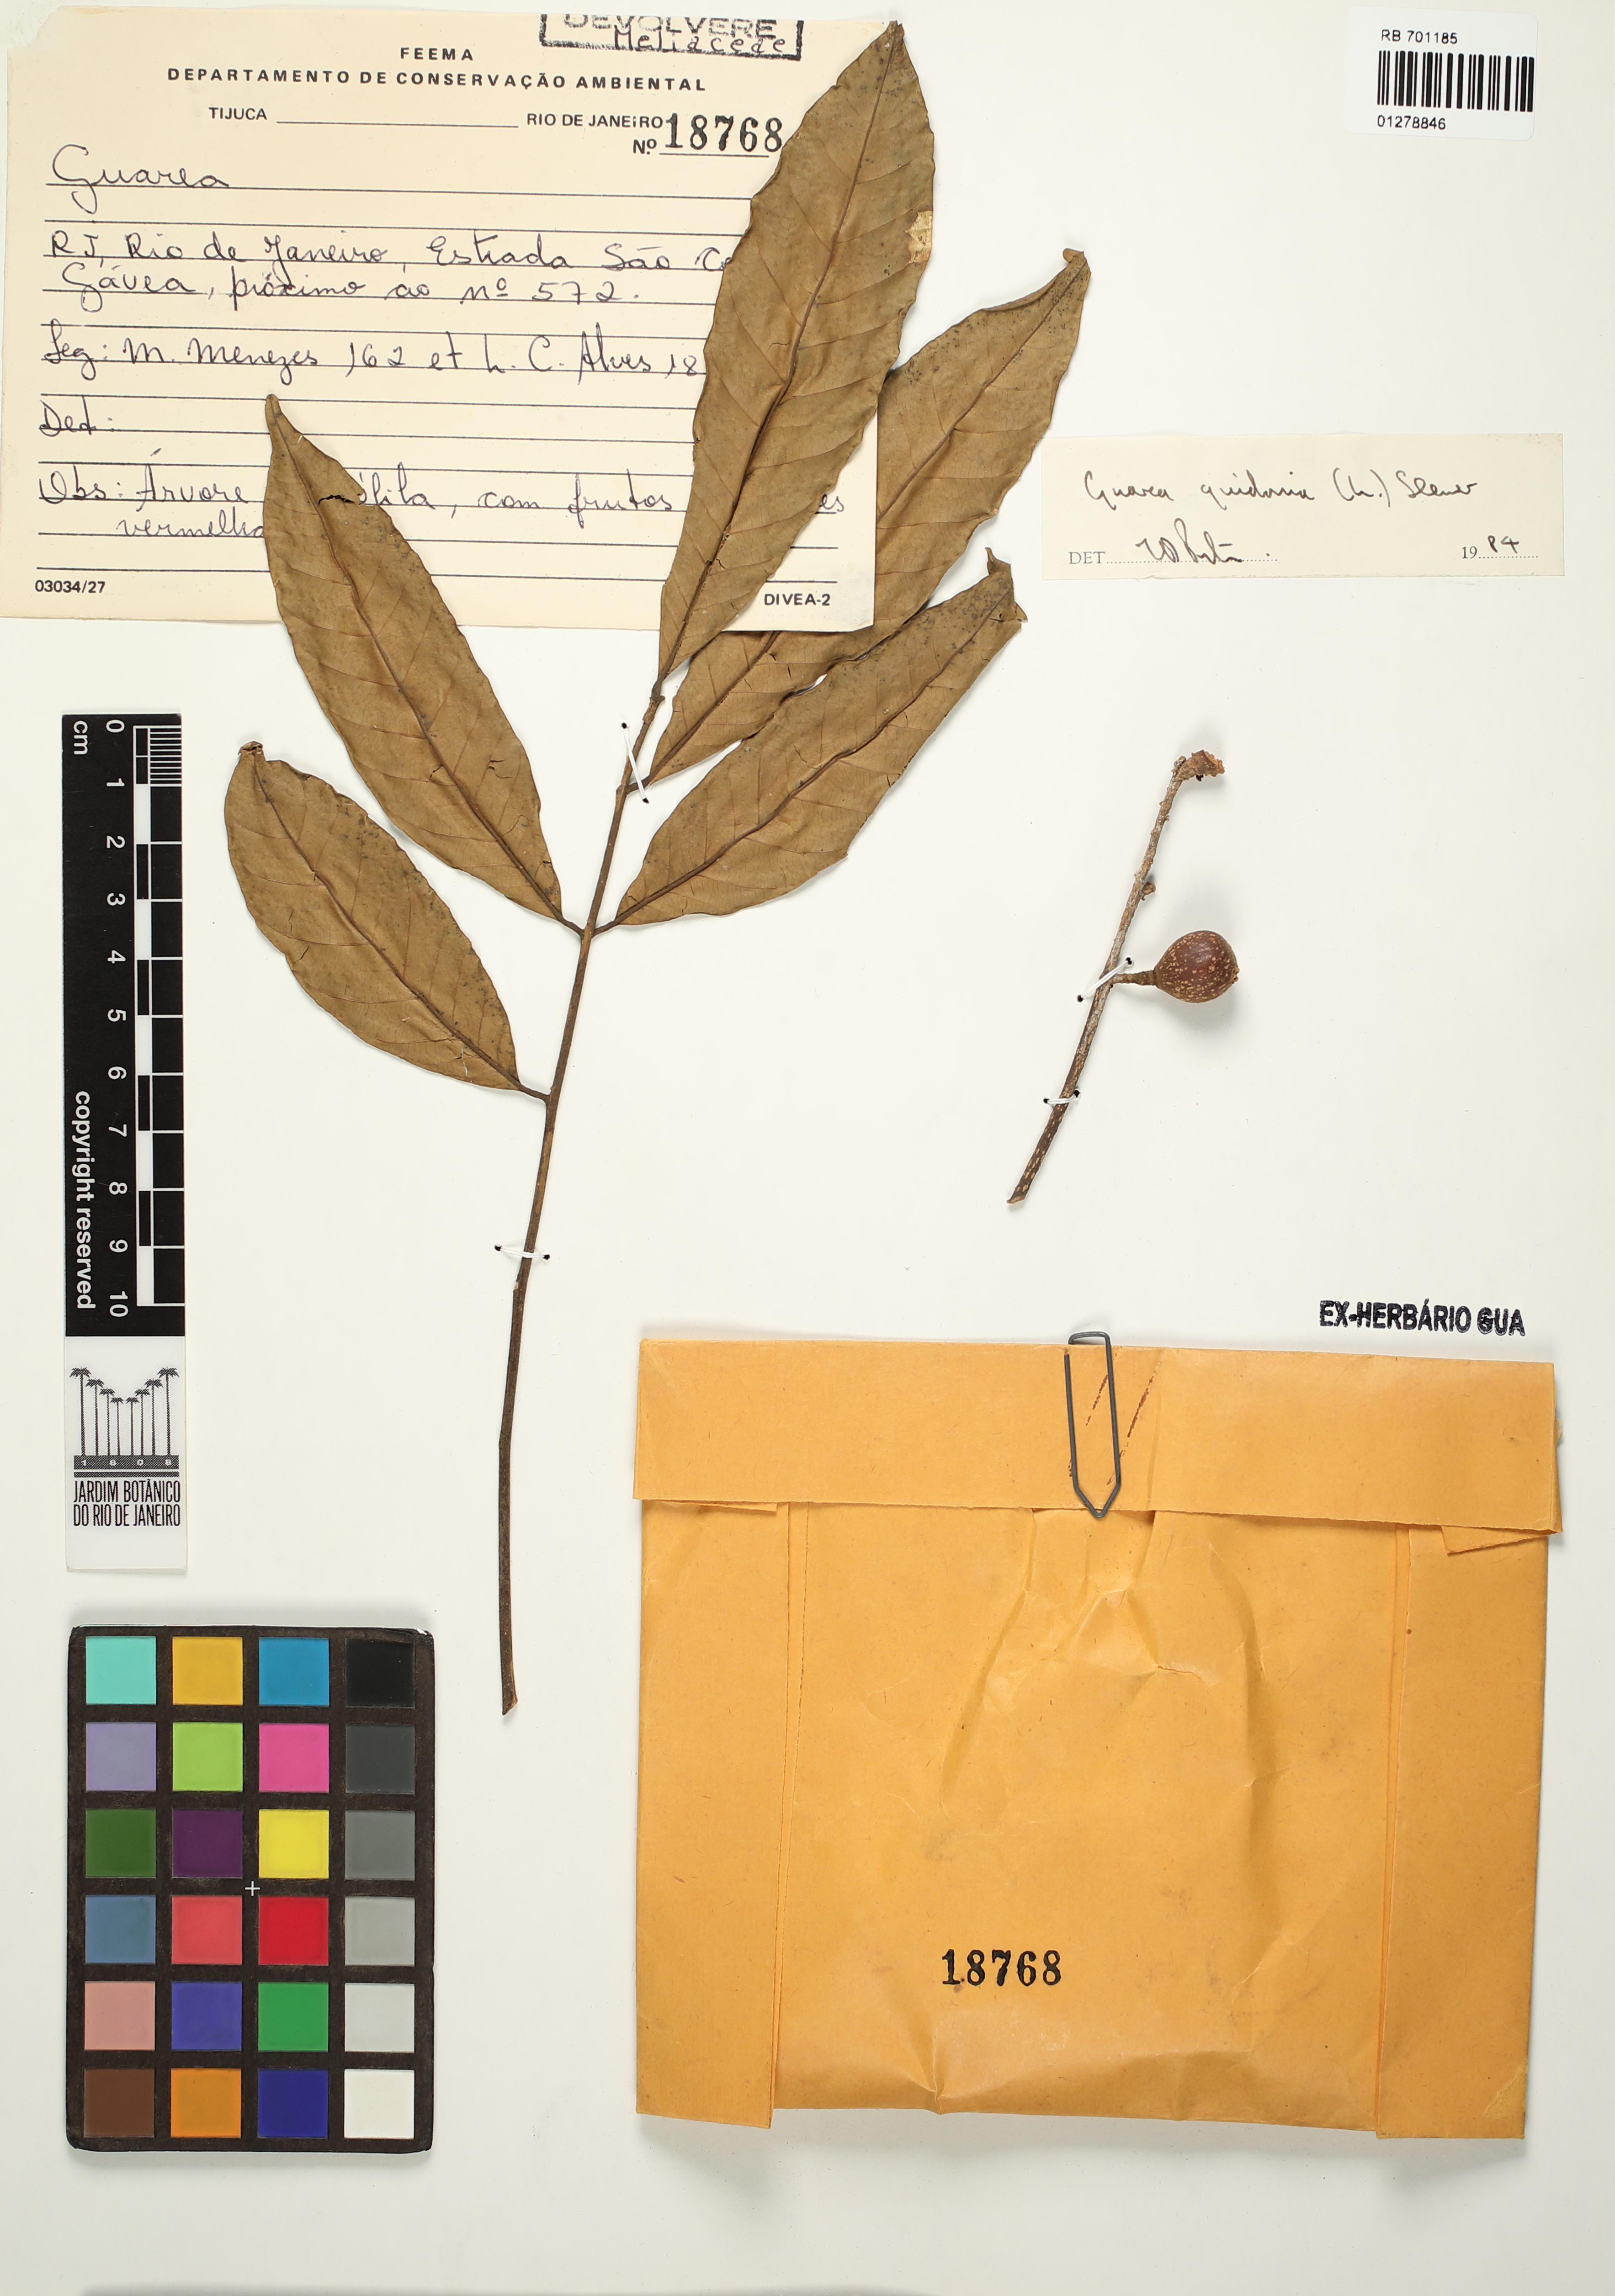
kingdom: Plantae
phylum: Tracheophyta
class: Magnoliopsida
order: Sapindales
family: Meliaceae
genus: Guarea
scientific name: Guarea guidonia
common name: American muskwood
